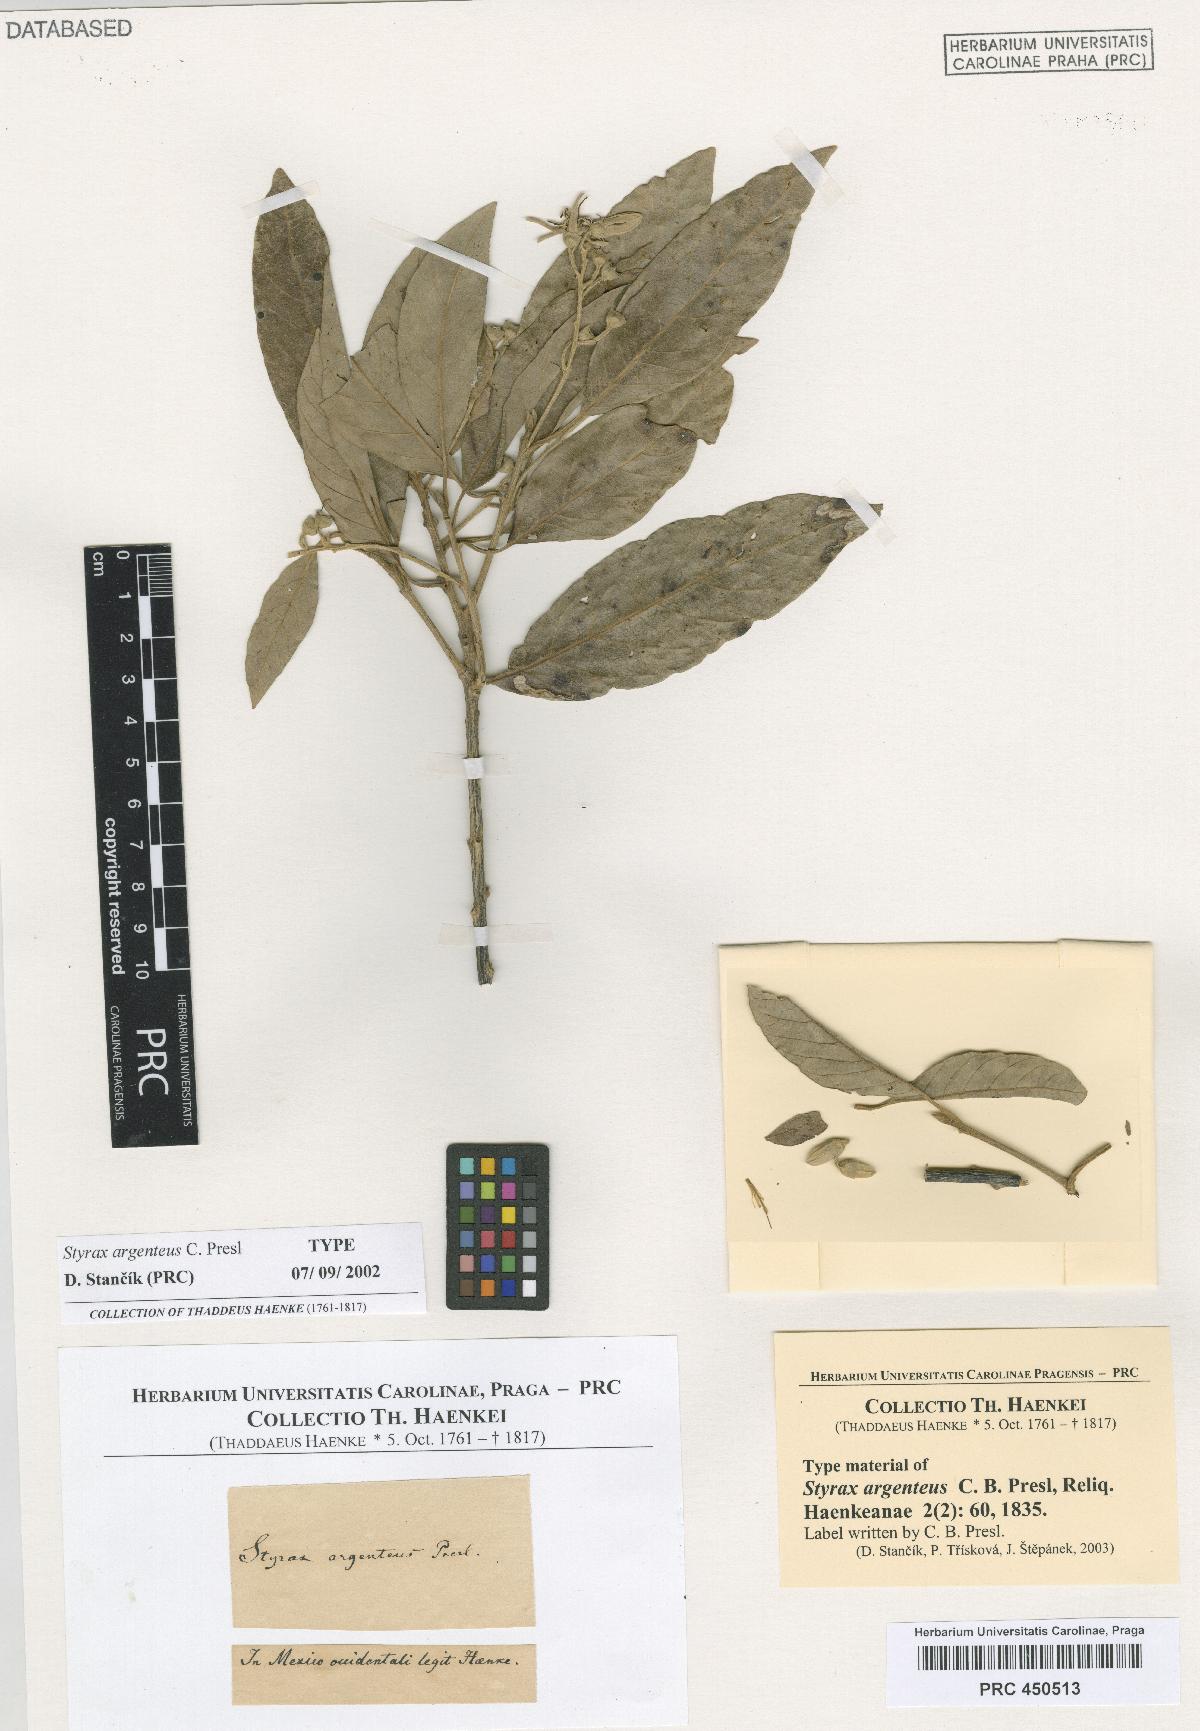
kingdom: Plantae
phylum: Tracheophyta
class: Magnoliopsida
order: Ericales
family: Styracaceae
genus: Styrax
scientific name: Styrax argenteus
